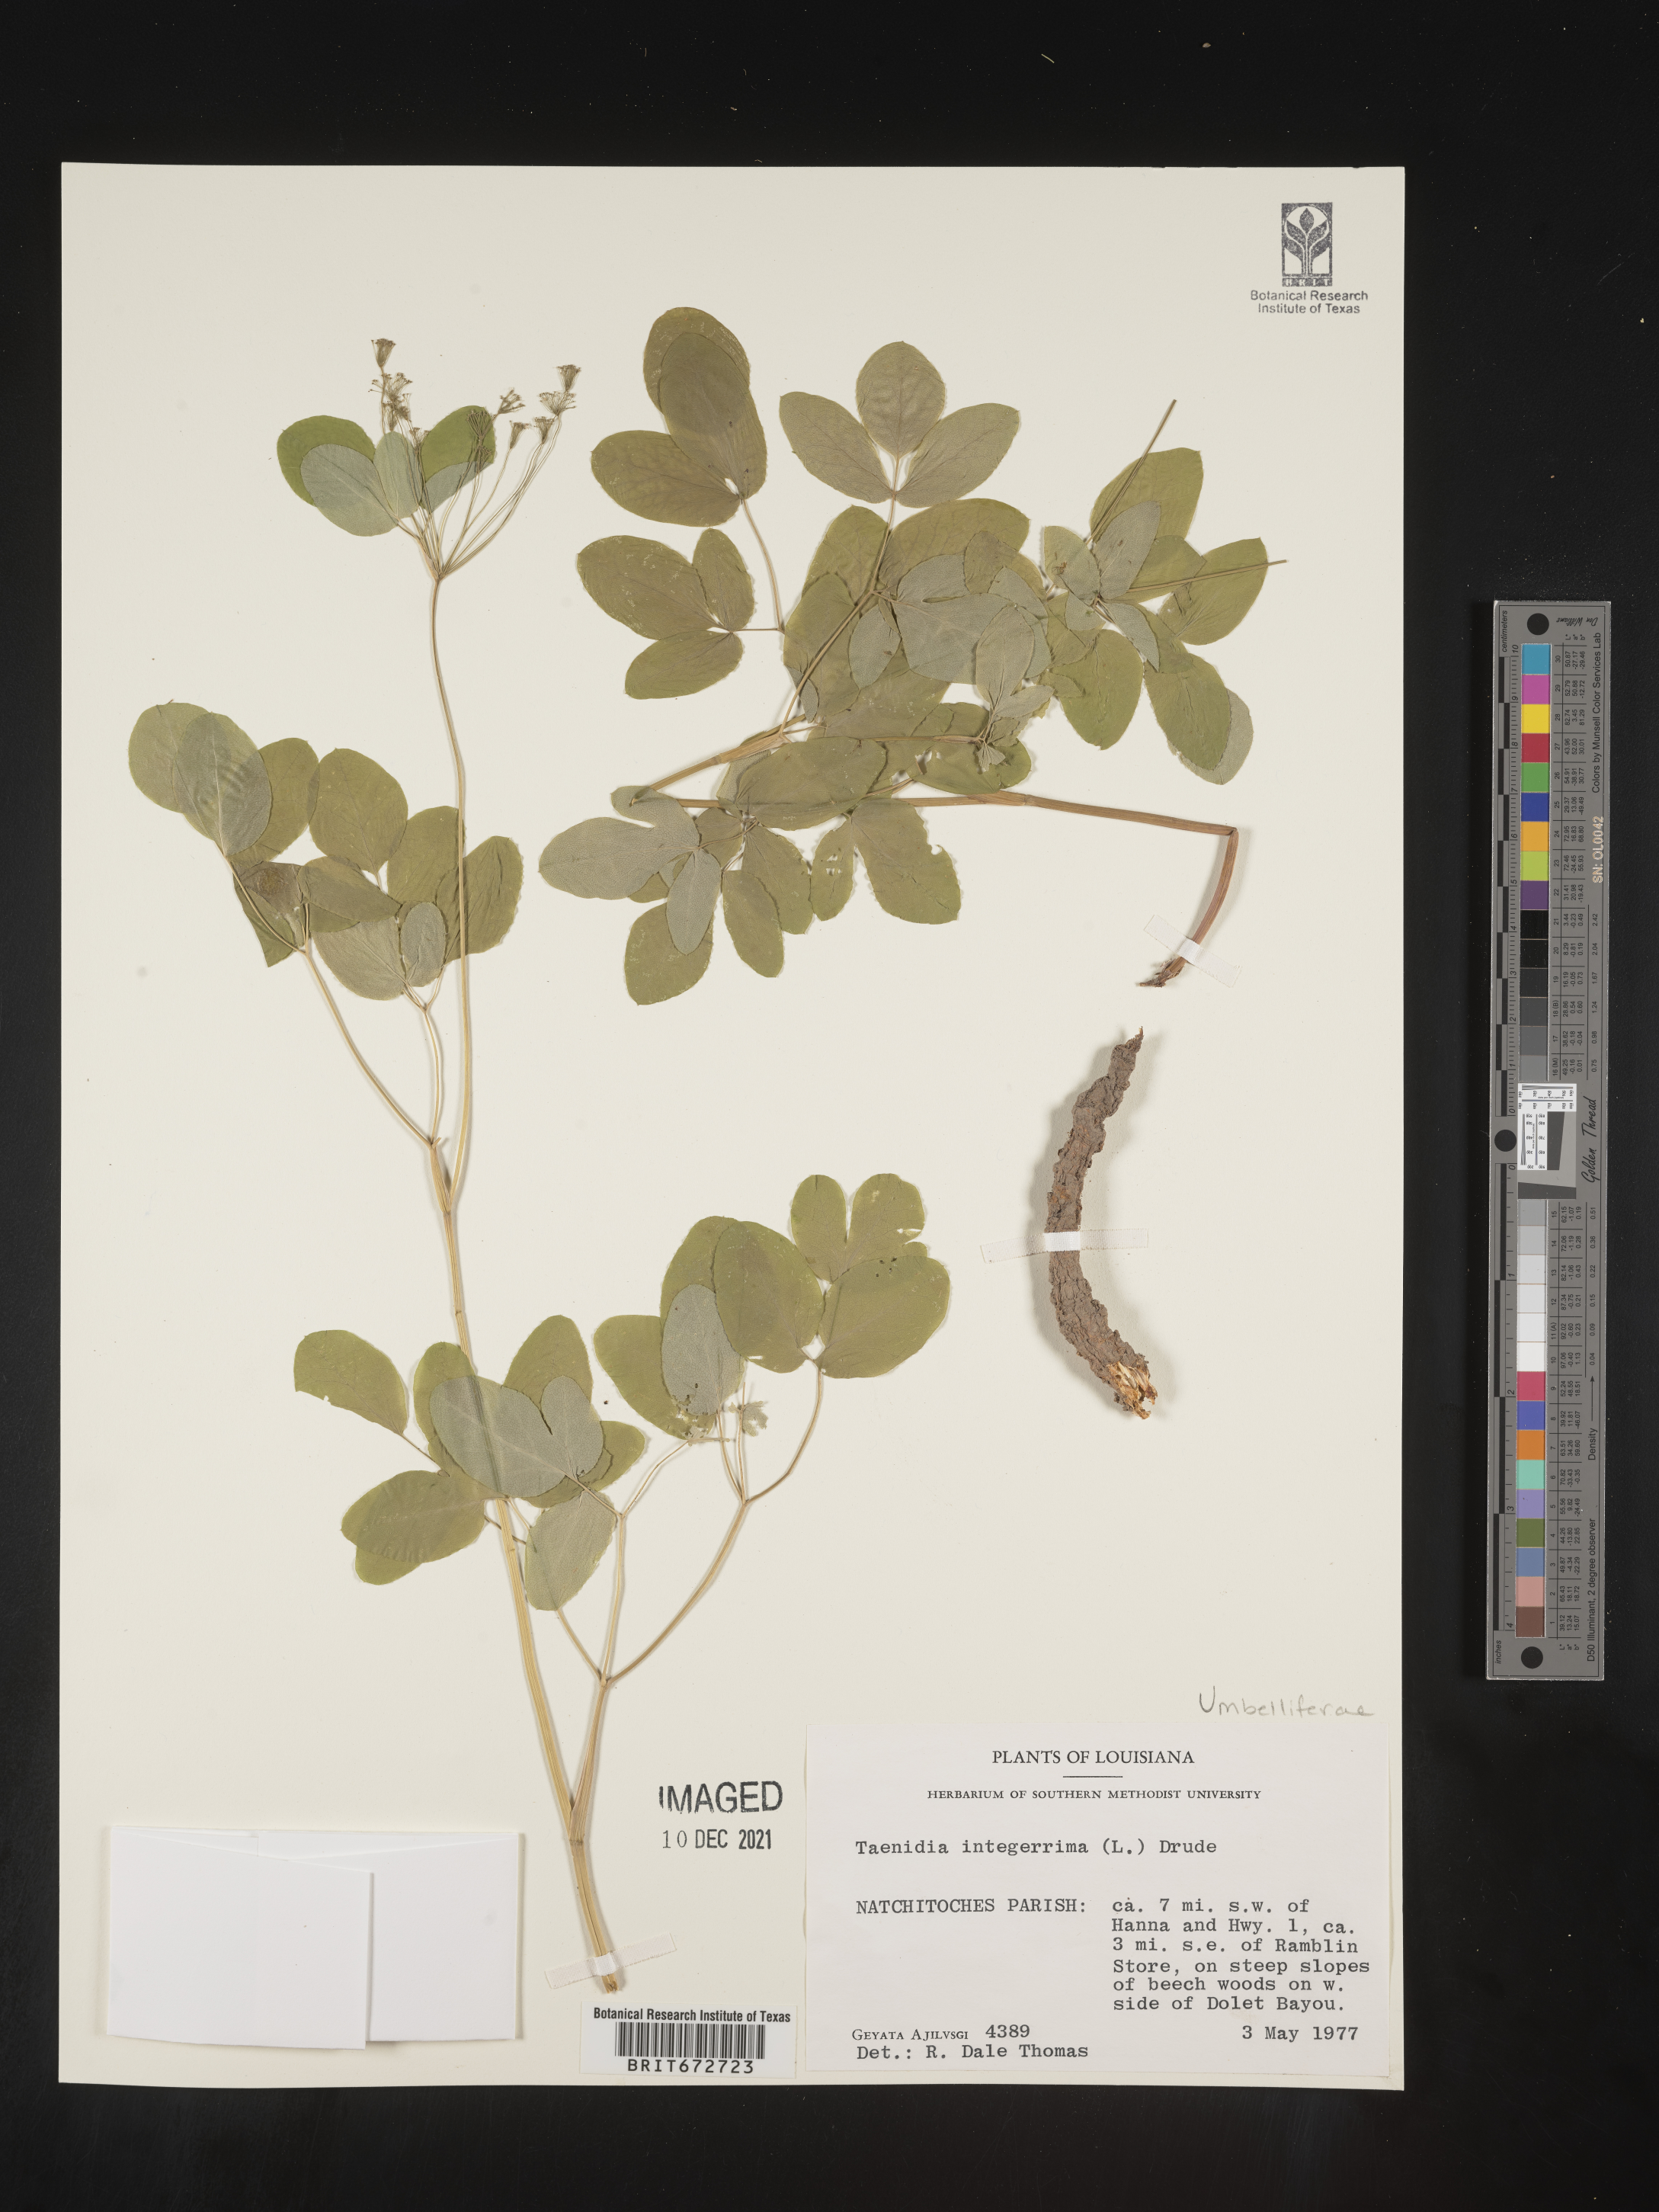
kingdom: Plantae
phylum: Tracheophyta
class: Magnoliopsida
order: Apiales
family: Apiaceae
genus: Taenidia
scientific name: Taenidia
